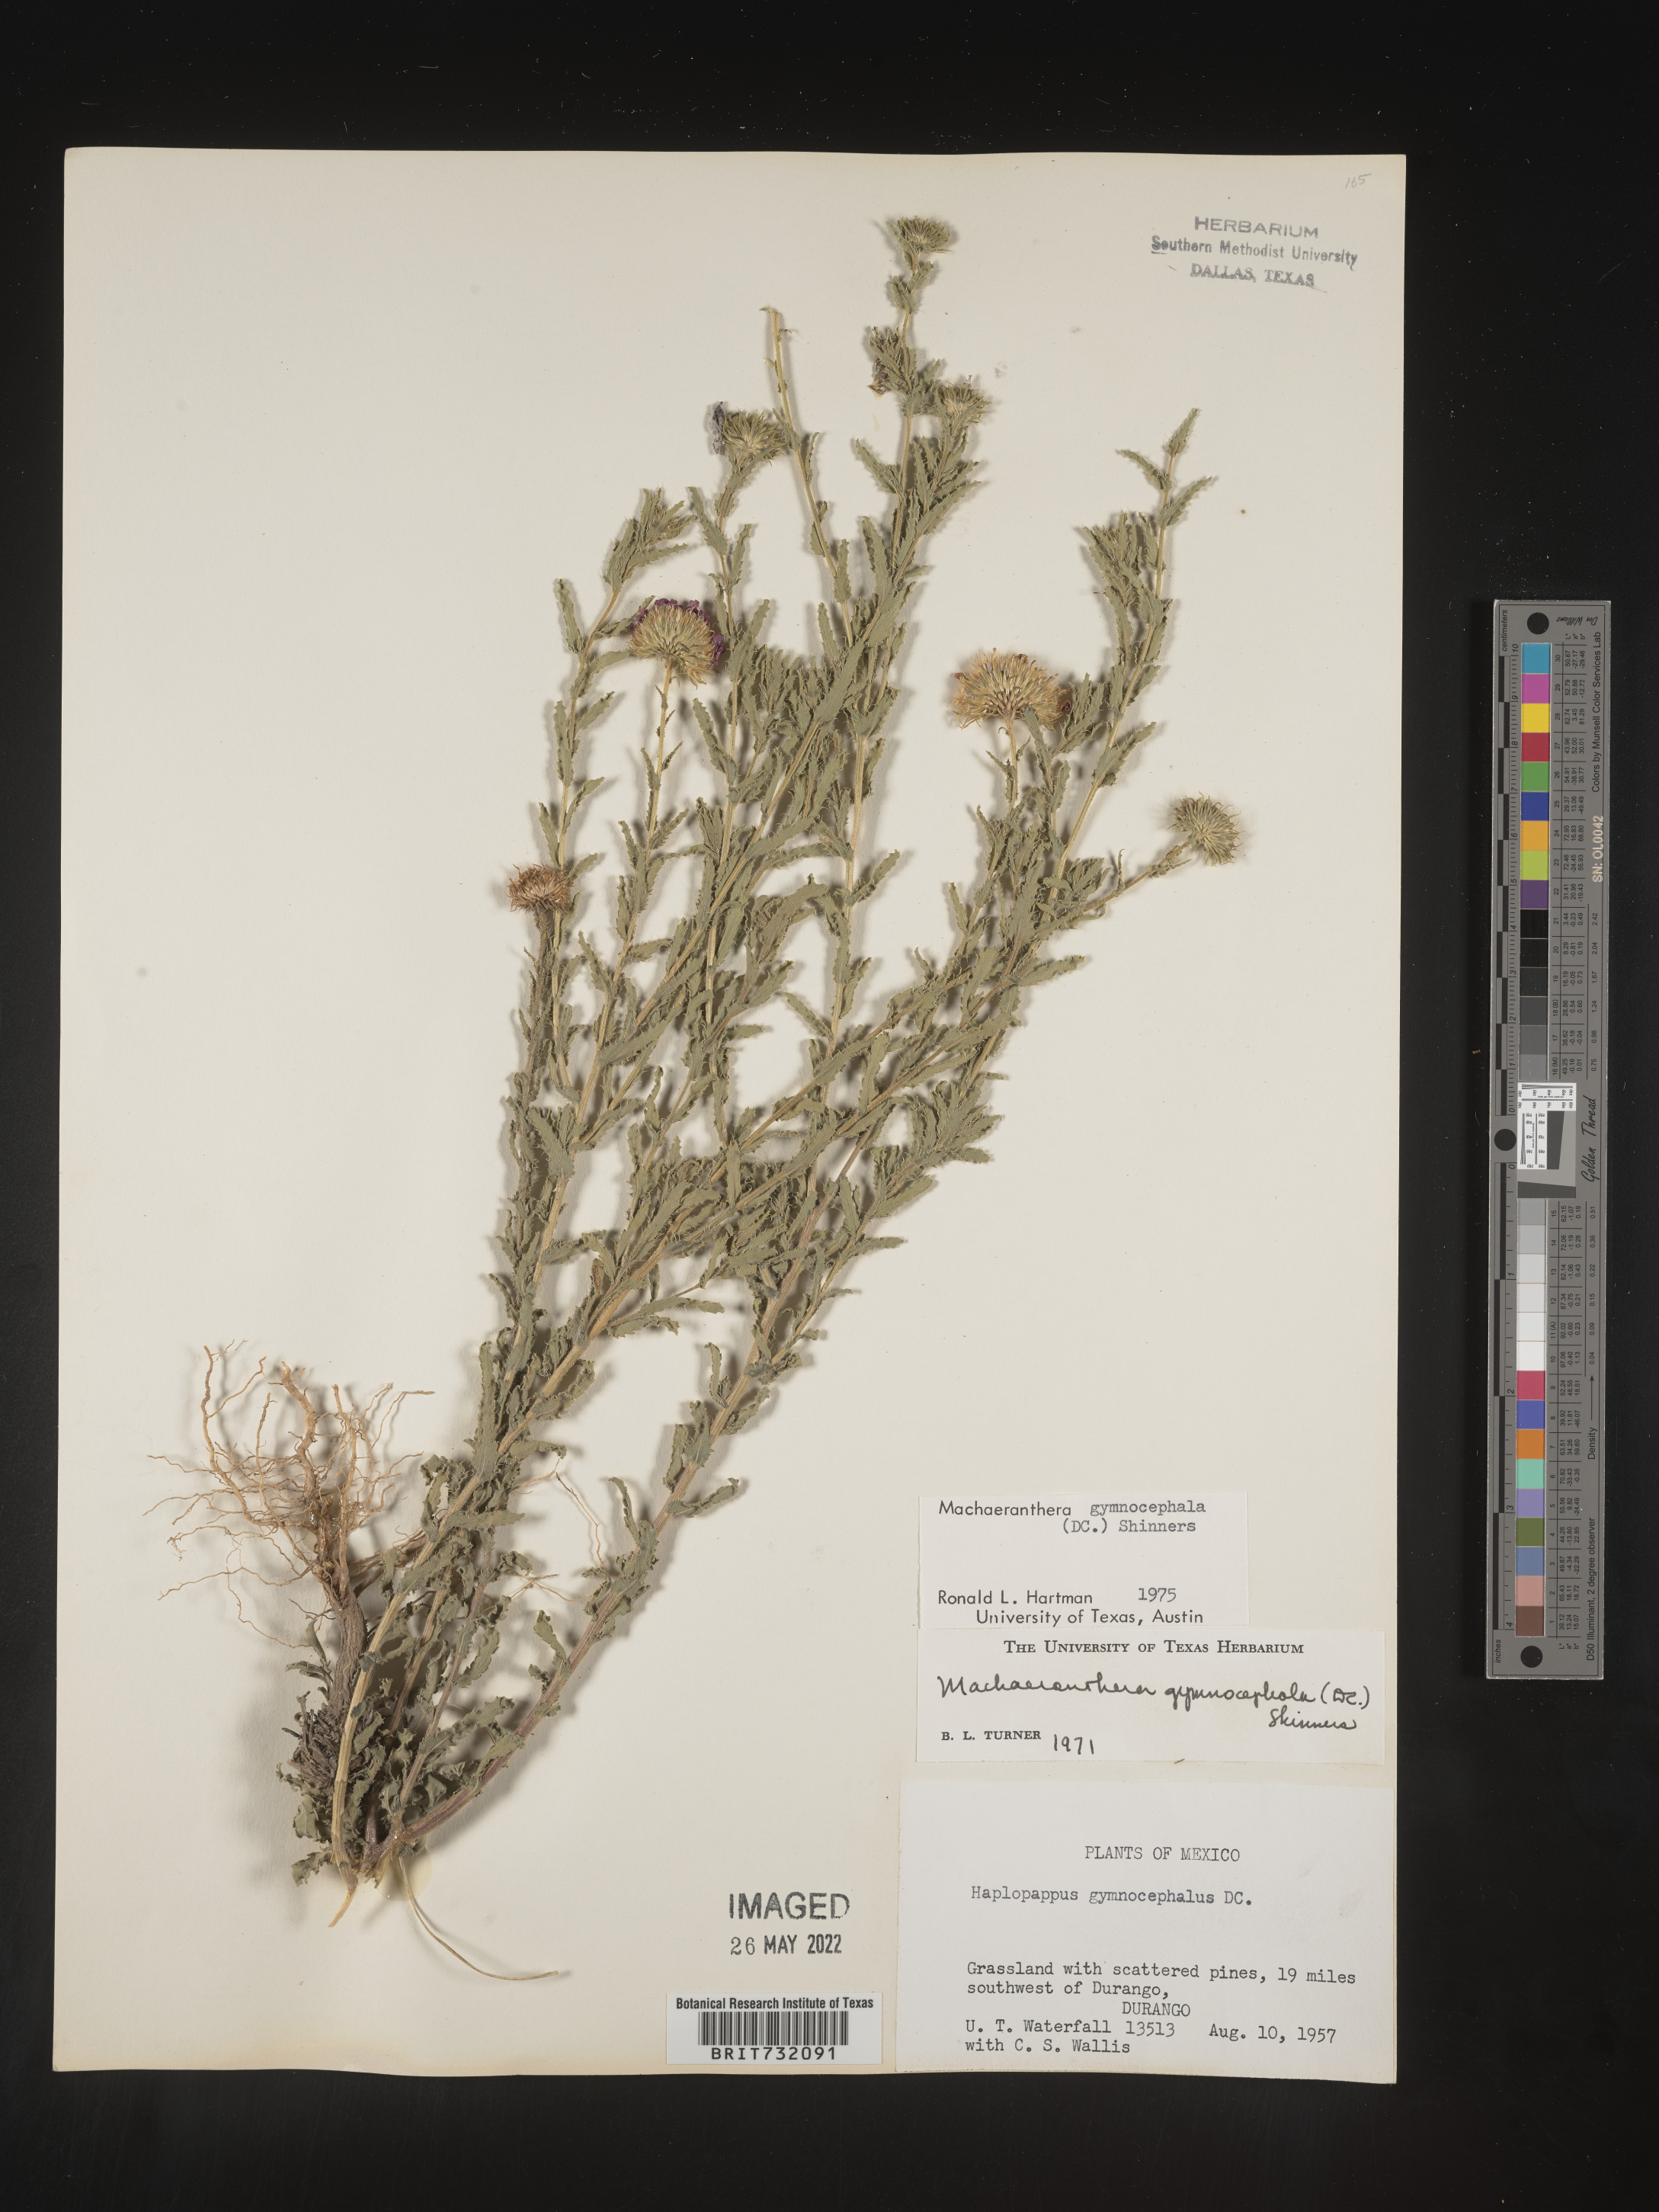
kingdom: Plantae
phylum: Tracheophyta
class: Magnoliopsida
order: Asterales
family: Asteraceae
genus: Xanthisma
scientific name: Xanthisma blephariphyllum
